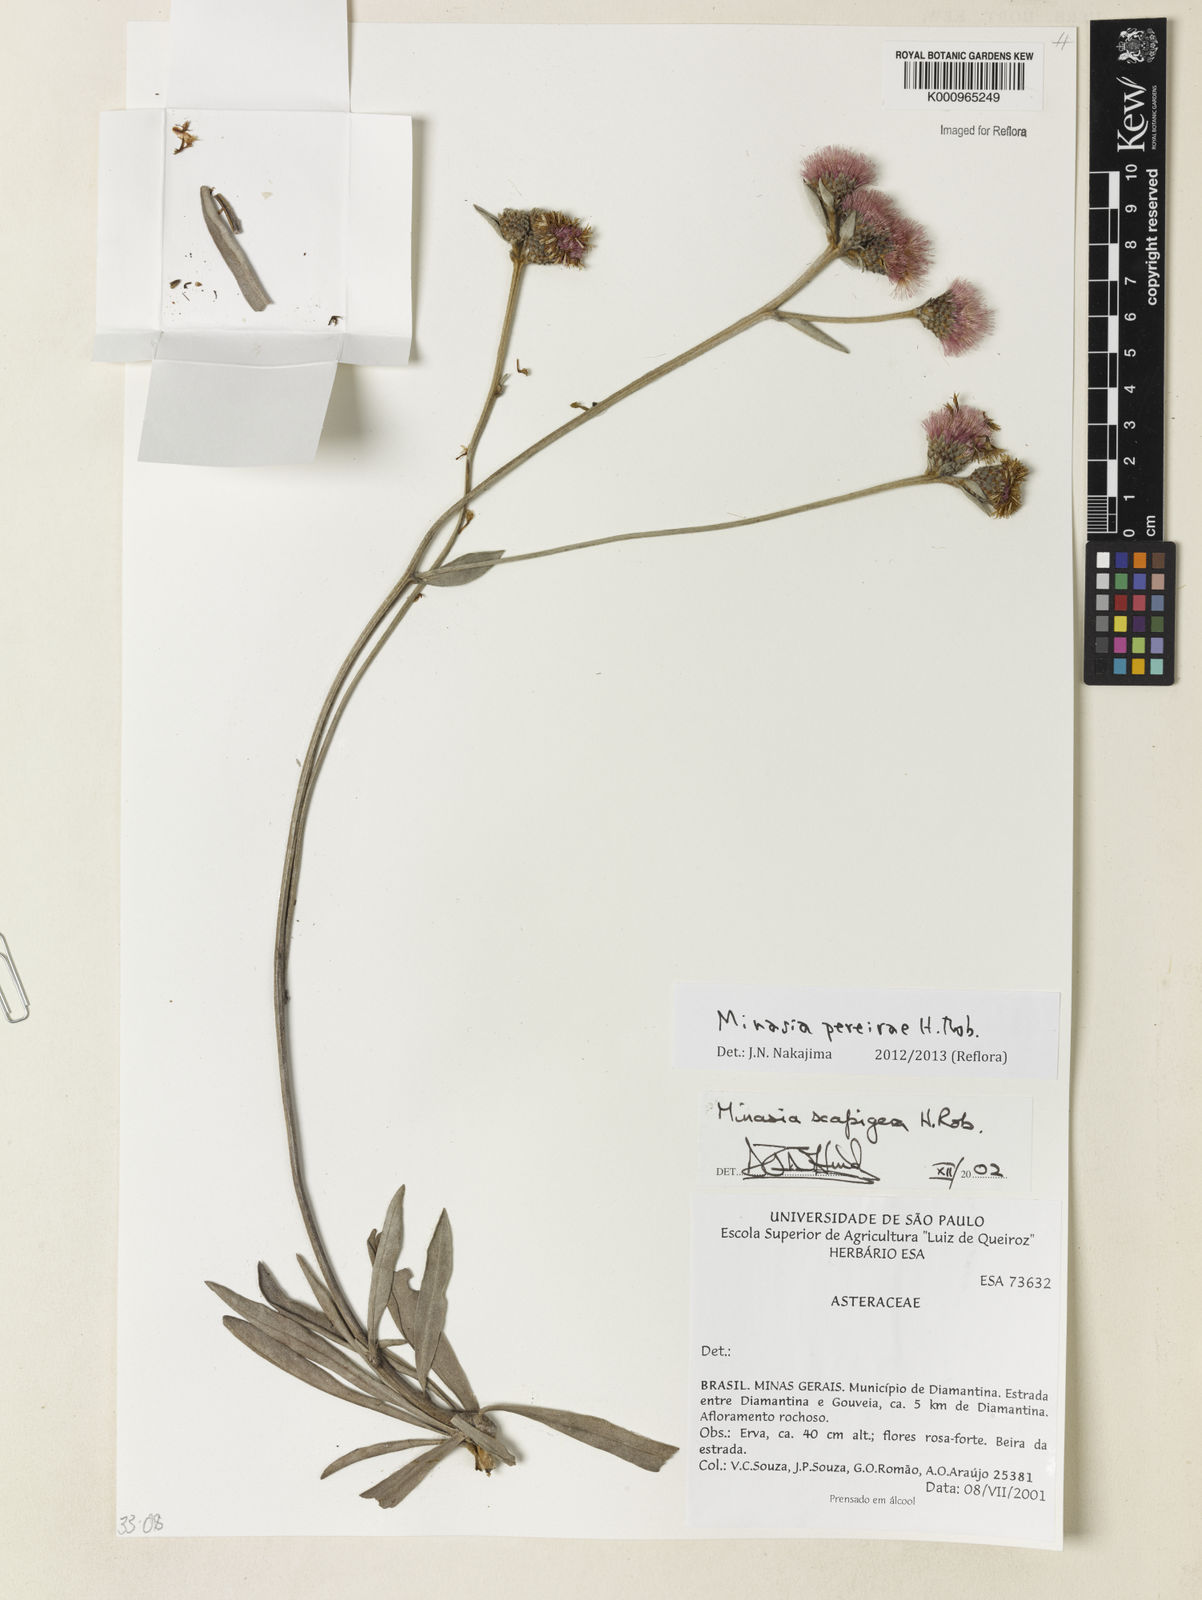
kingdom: Plantae
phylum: Tracheophyta
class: Magnoliopsida
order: Asterales
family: Asteraceae
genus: Minasia
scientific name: Minasia pereirae
